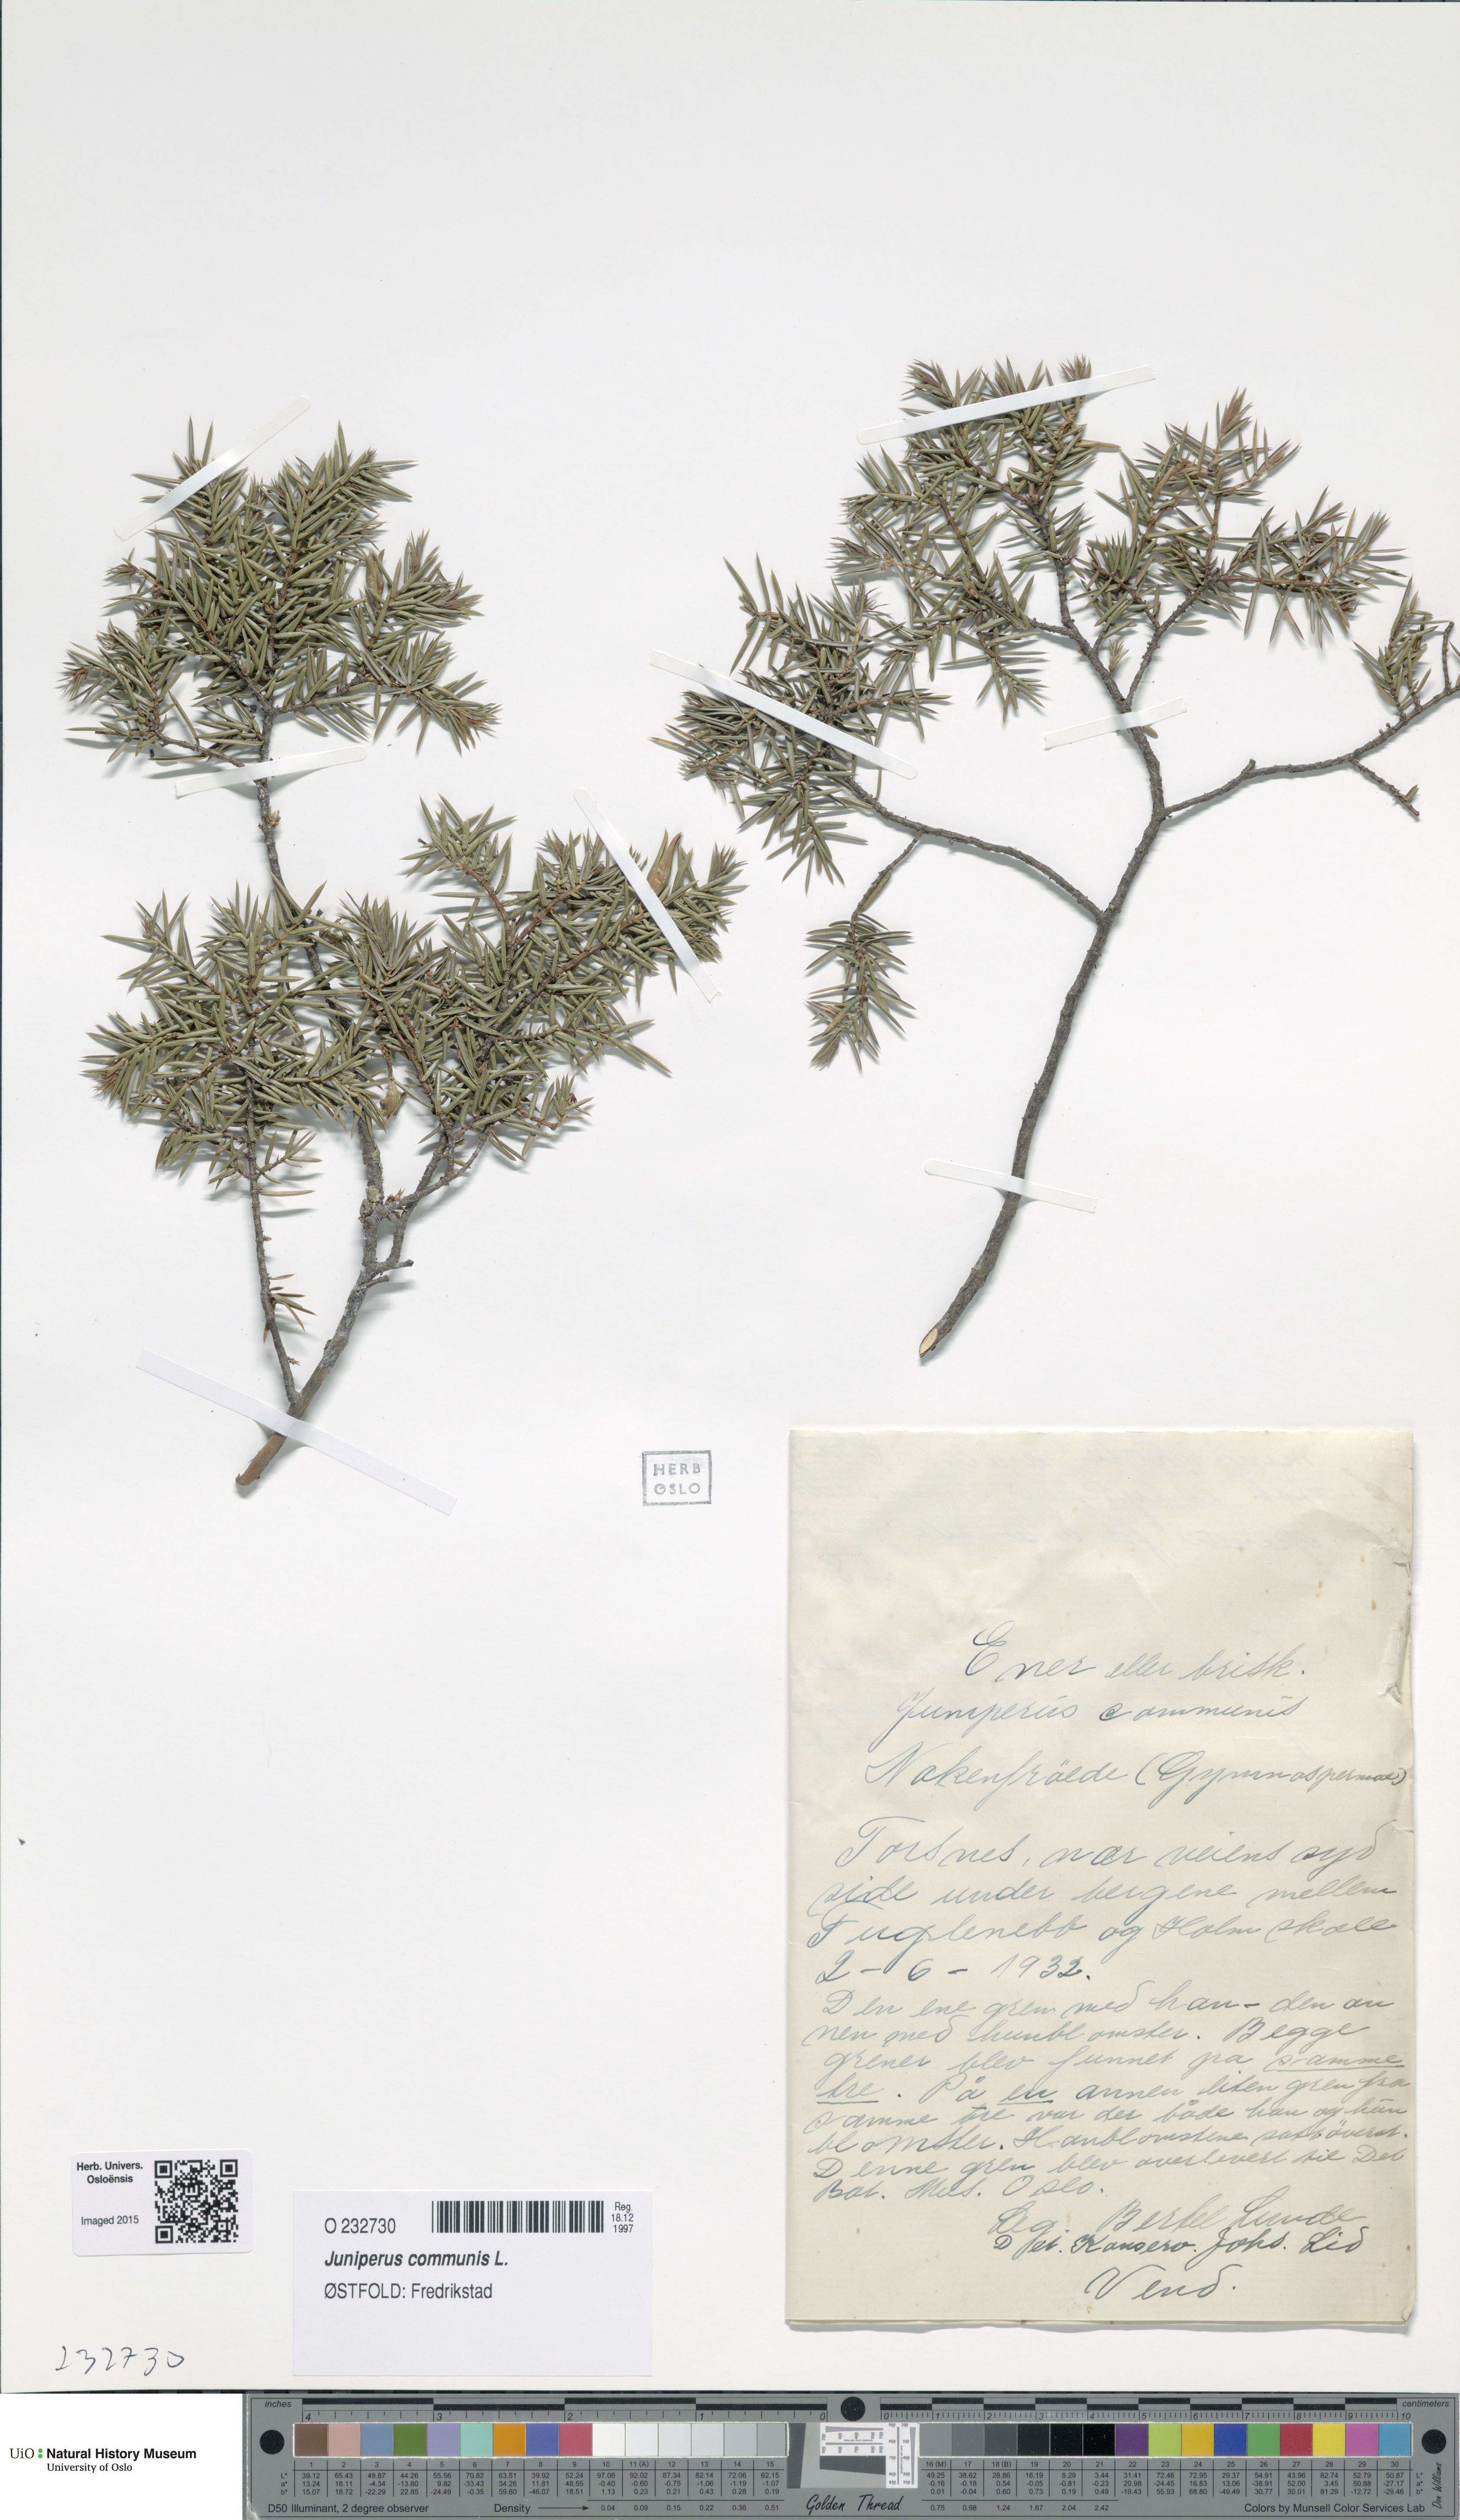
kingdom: Plantae
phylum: Tracheophyta
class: Pinopsida
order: Pinales
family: Cupressaceae
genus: Juniperus
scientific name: Juniperus communis
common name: Common juniper
